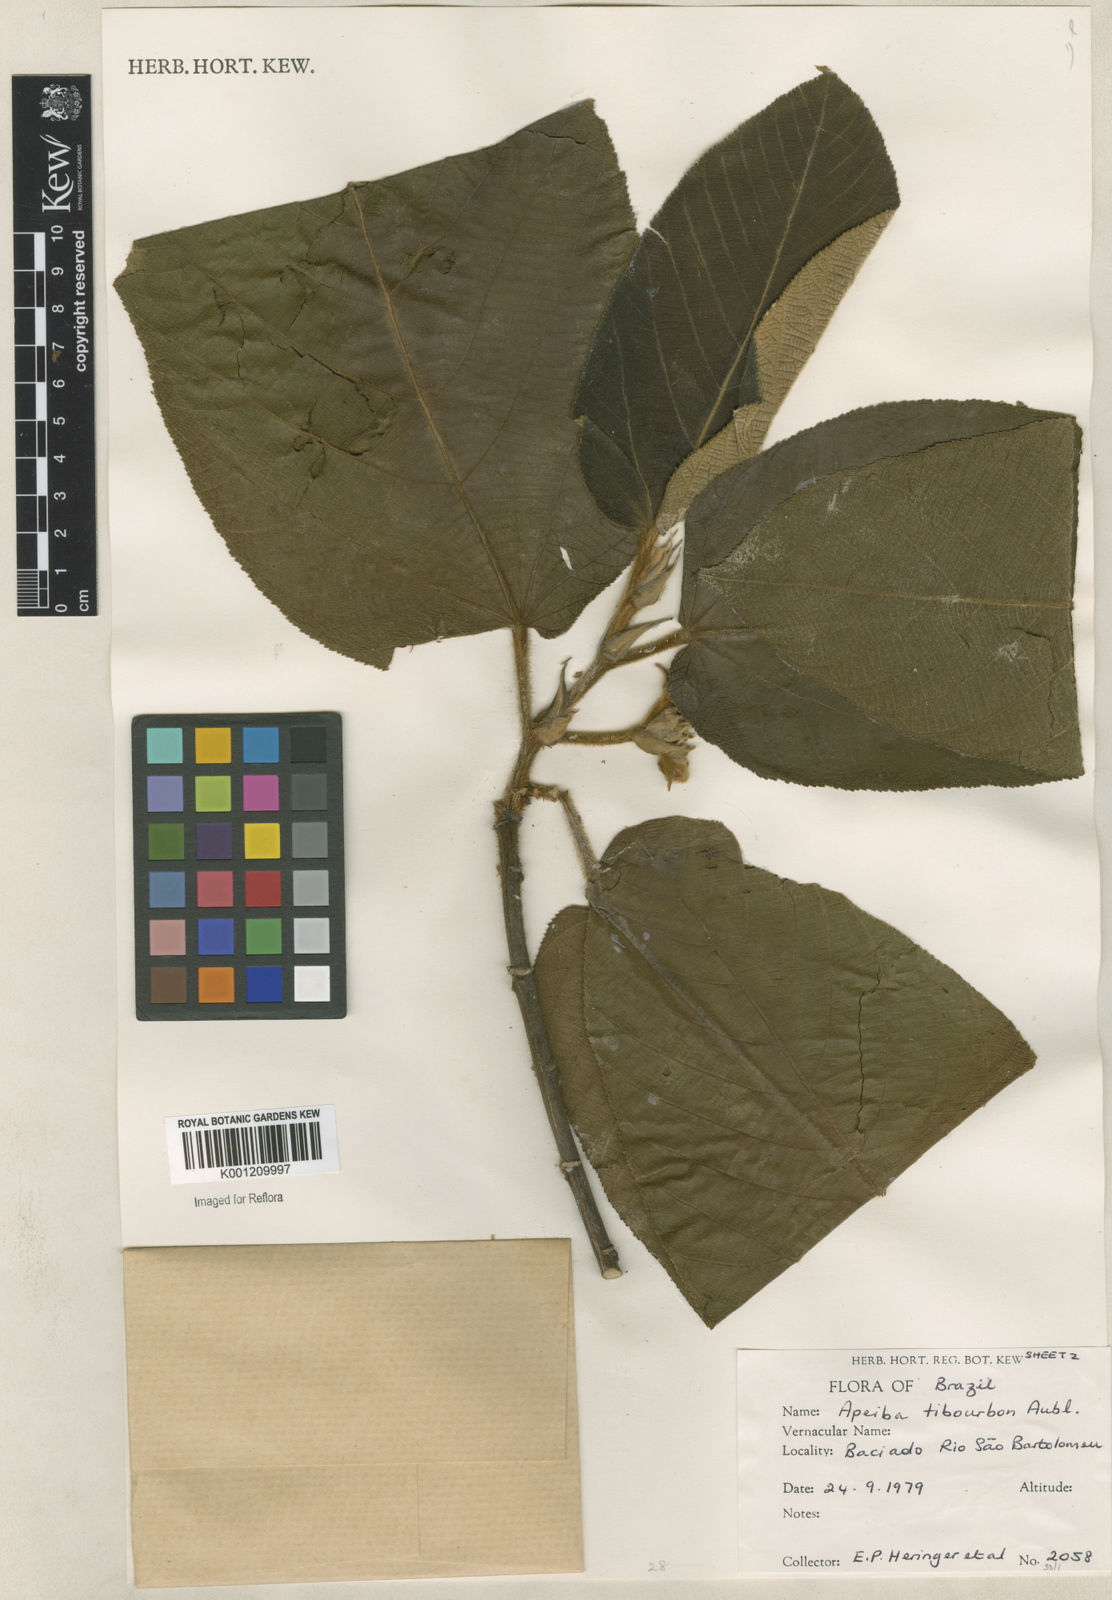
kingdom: Plantae
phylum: Tracheophyta
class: Magnoliopsida
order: Malvales
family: Malvaceae
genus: Apeiba
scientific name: Apeiba tibourbou
